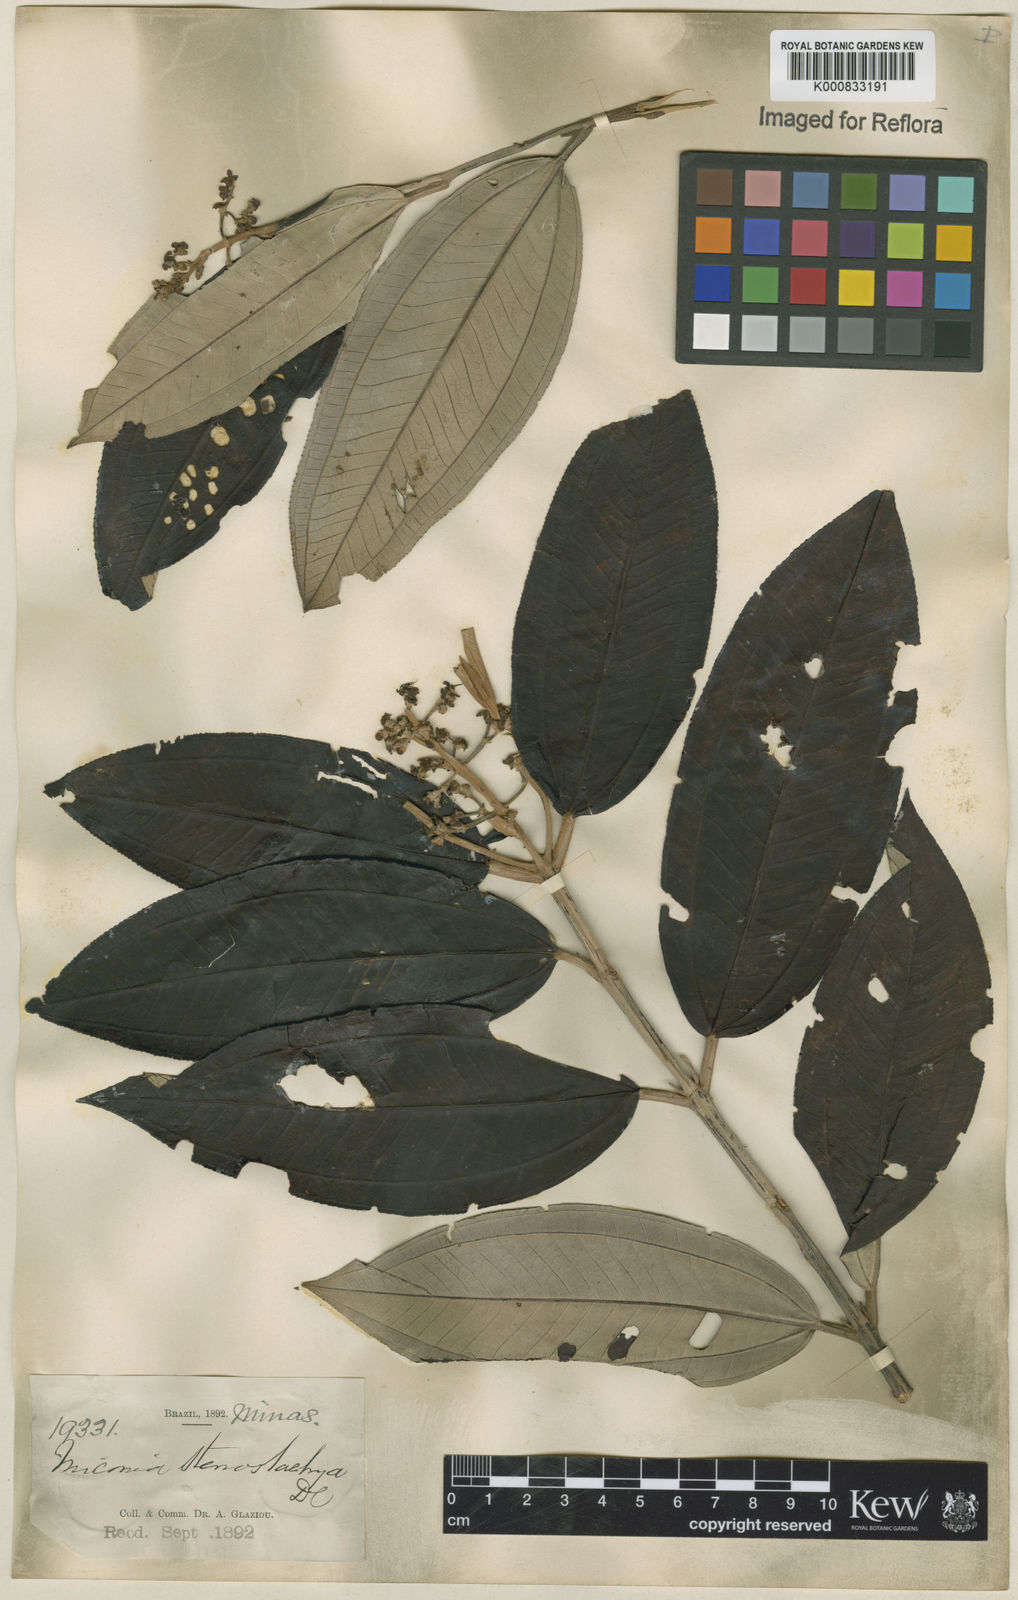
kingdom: Plantae
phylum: Tracheophyta
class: Magnoliopsida
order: Myrtales
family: Melastomataceae
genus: Miconia
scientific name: Miconia stenostachya
